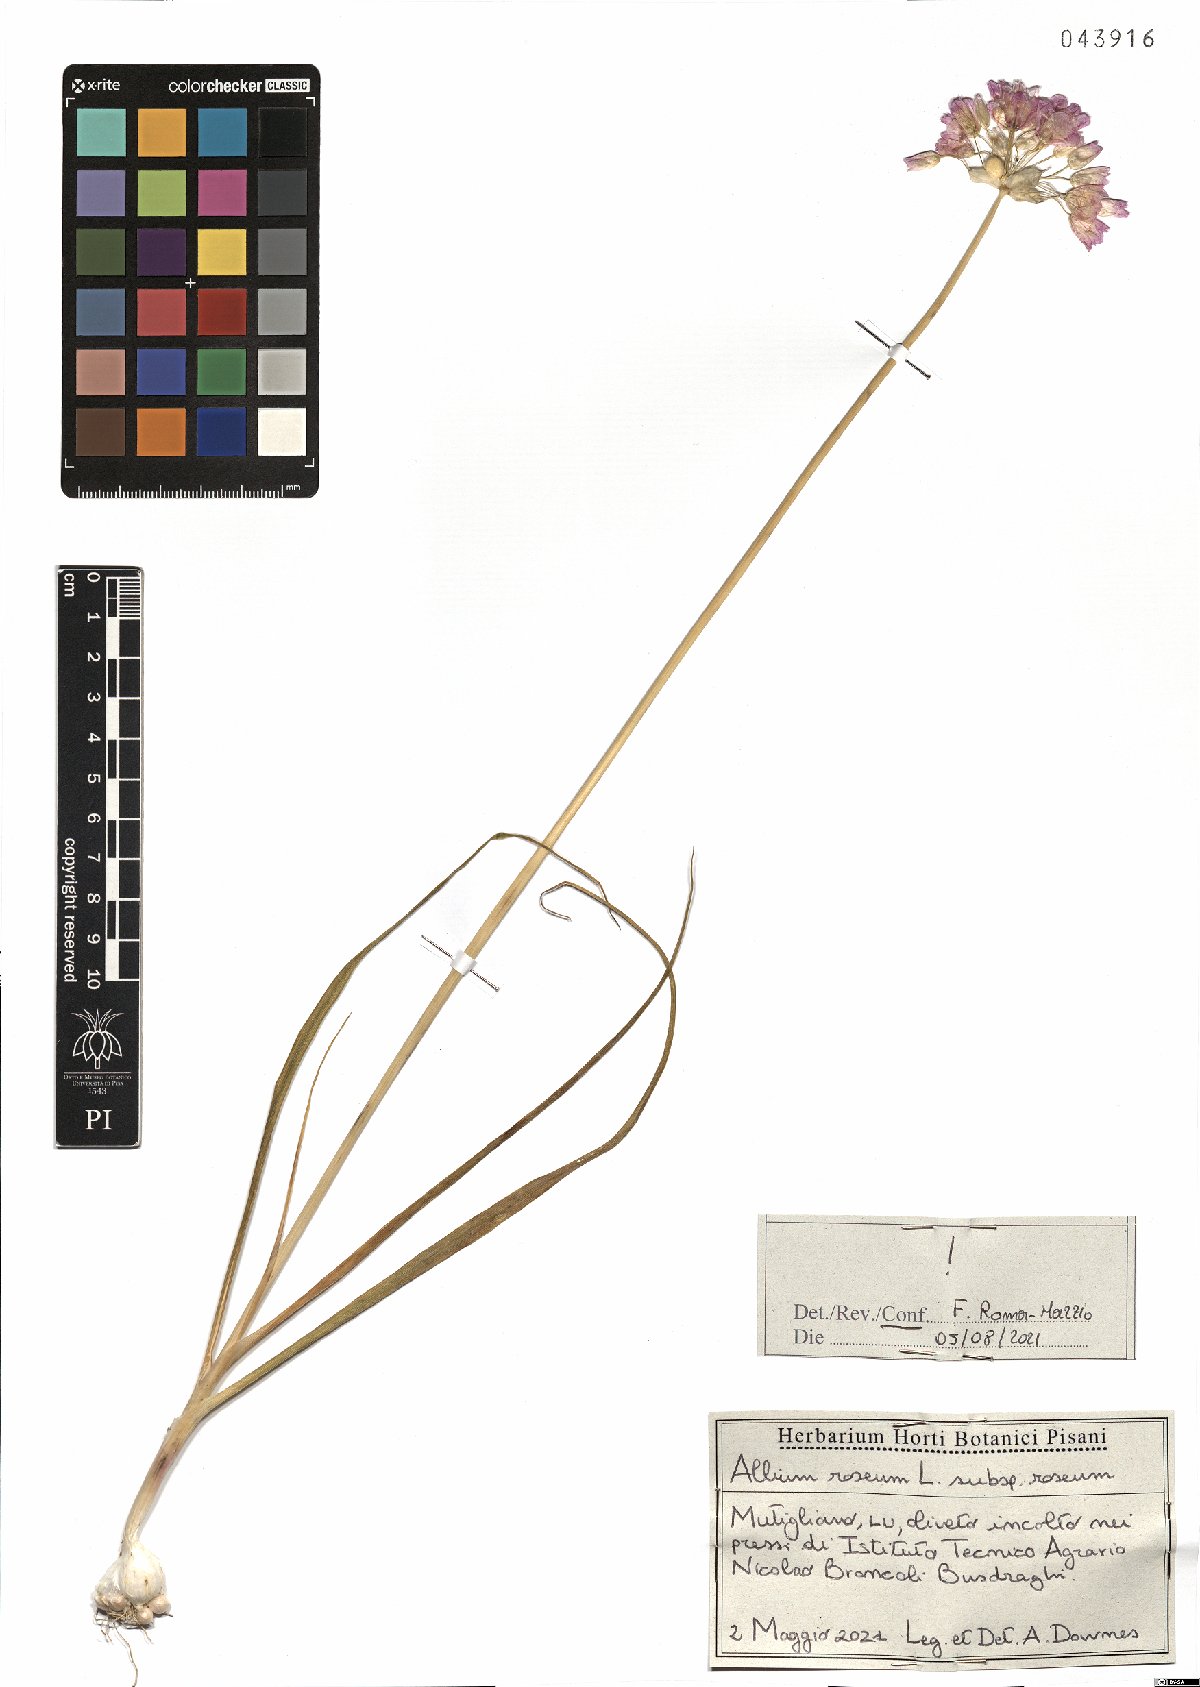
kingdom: Plantae
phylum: Tracheophyta
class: Liliopsida
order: Asparagales
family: Amaryllidaceae
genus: Allium
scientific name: Allium roseum
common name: Rosy garlic
